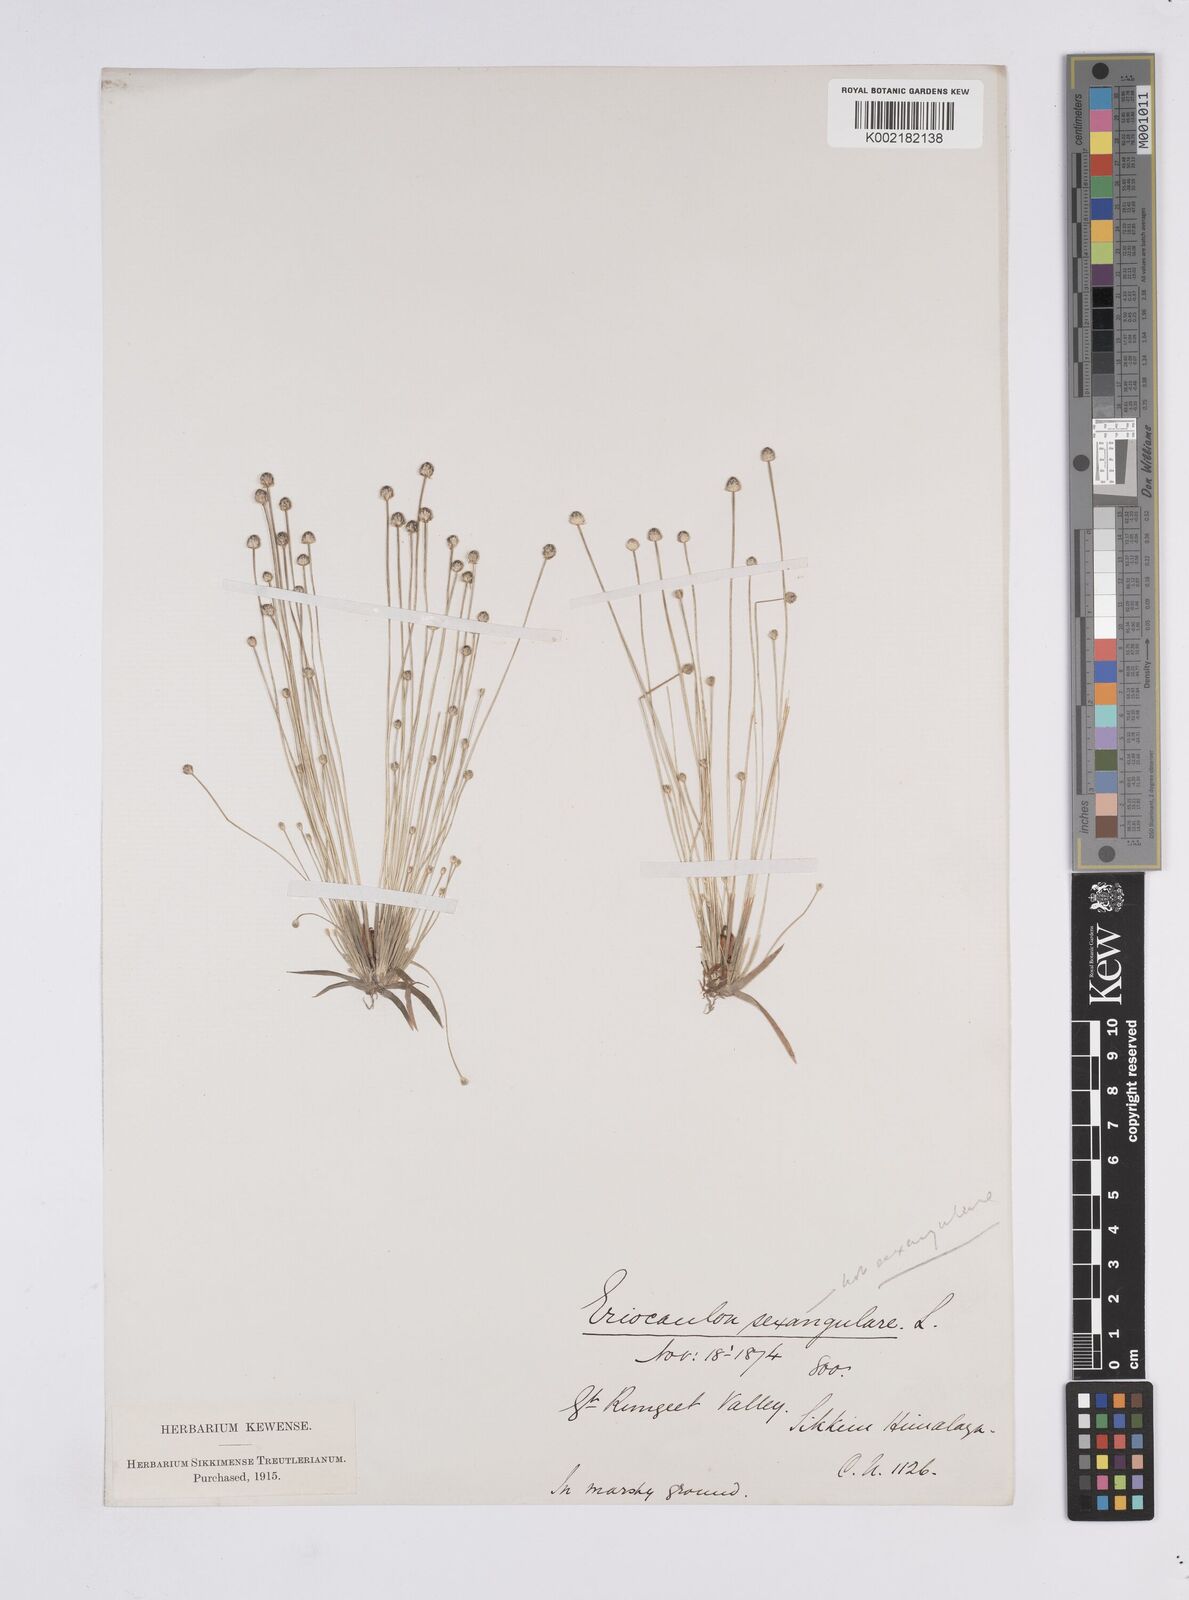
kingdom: Plantae
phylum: Tracheophyta
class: Liliopsida
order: Poales
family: Eriocaulaceae
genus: Eriocaulon
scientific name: Eriocaulon
